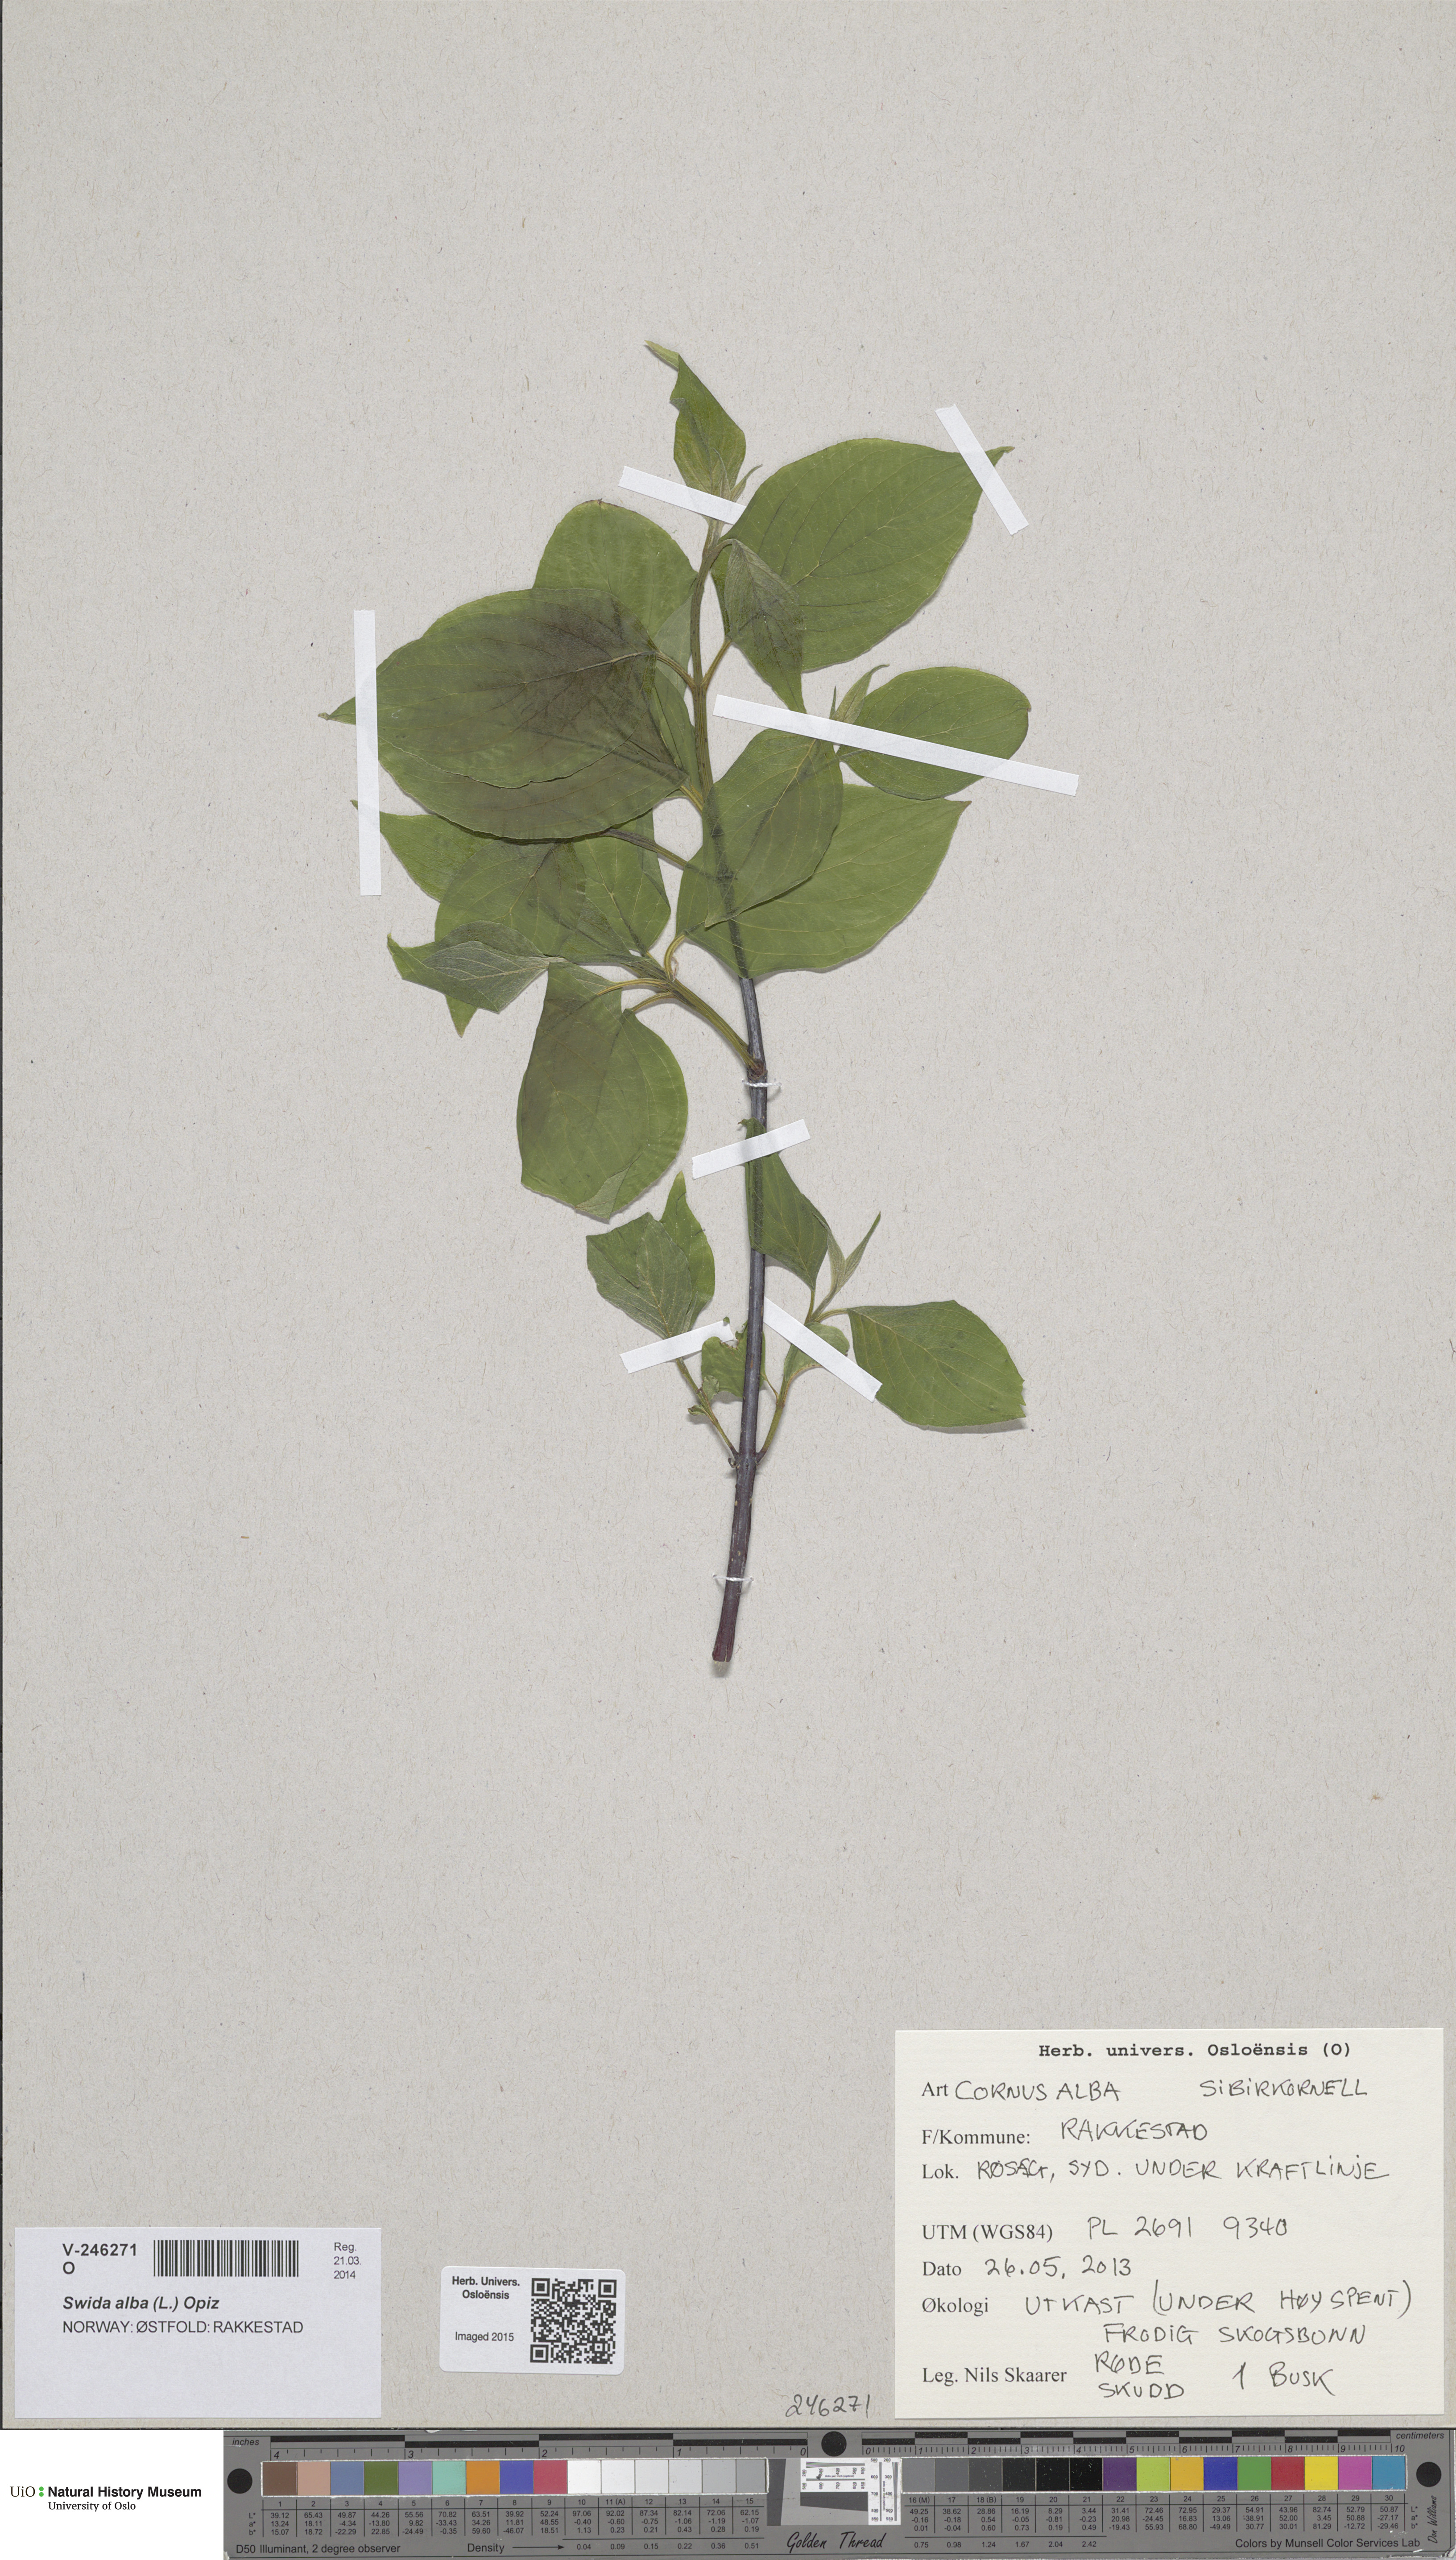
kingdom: Plantae
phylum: Tracheophyta
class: Magnoliopsida
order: Cornales
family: Cornaceae
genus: Cornus
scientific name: Cornus sericea
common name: Red-osier dogwood
